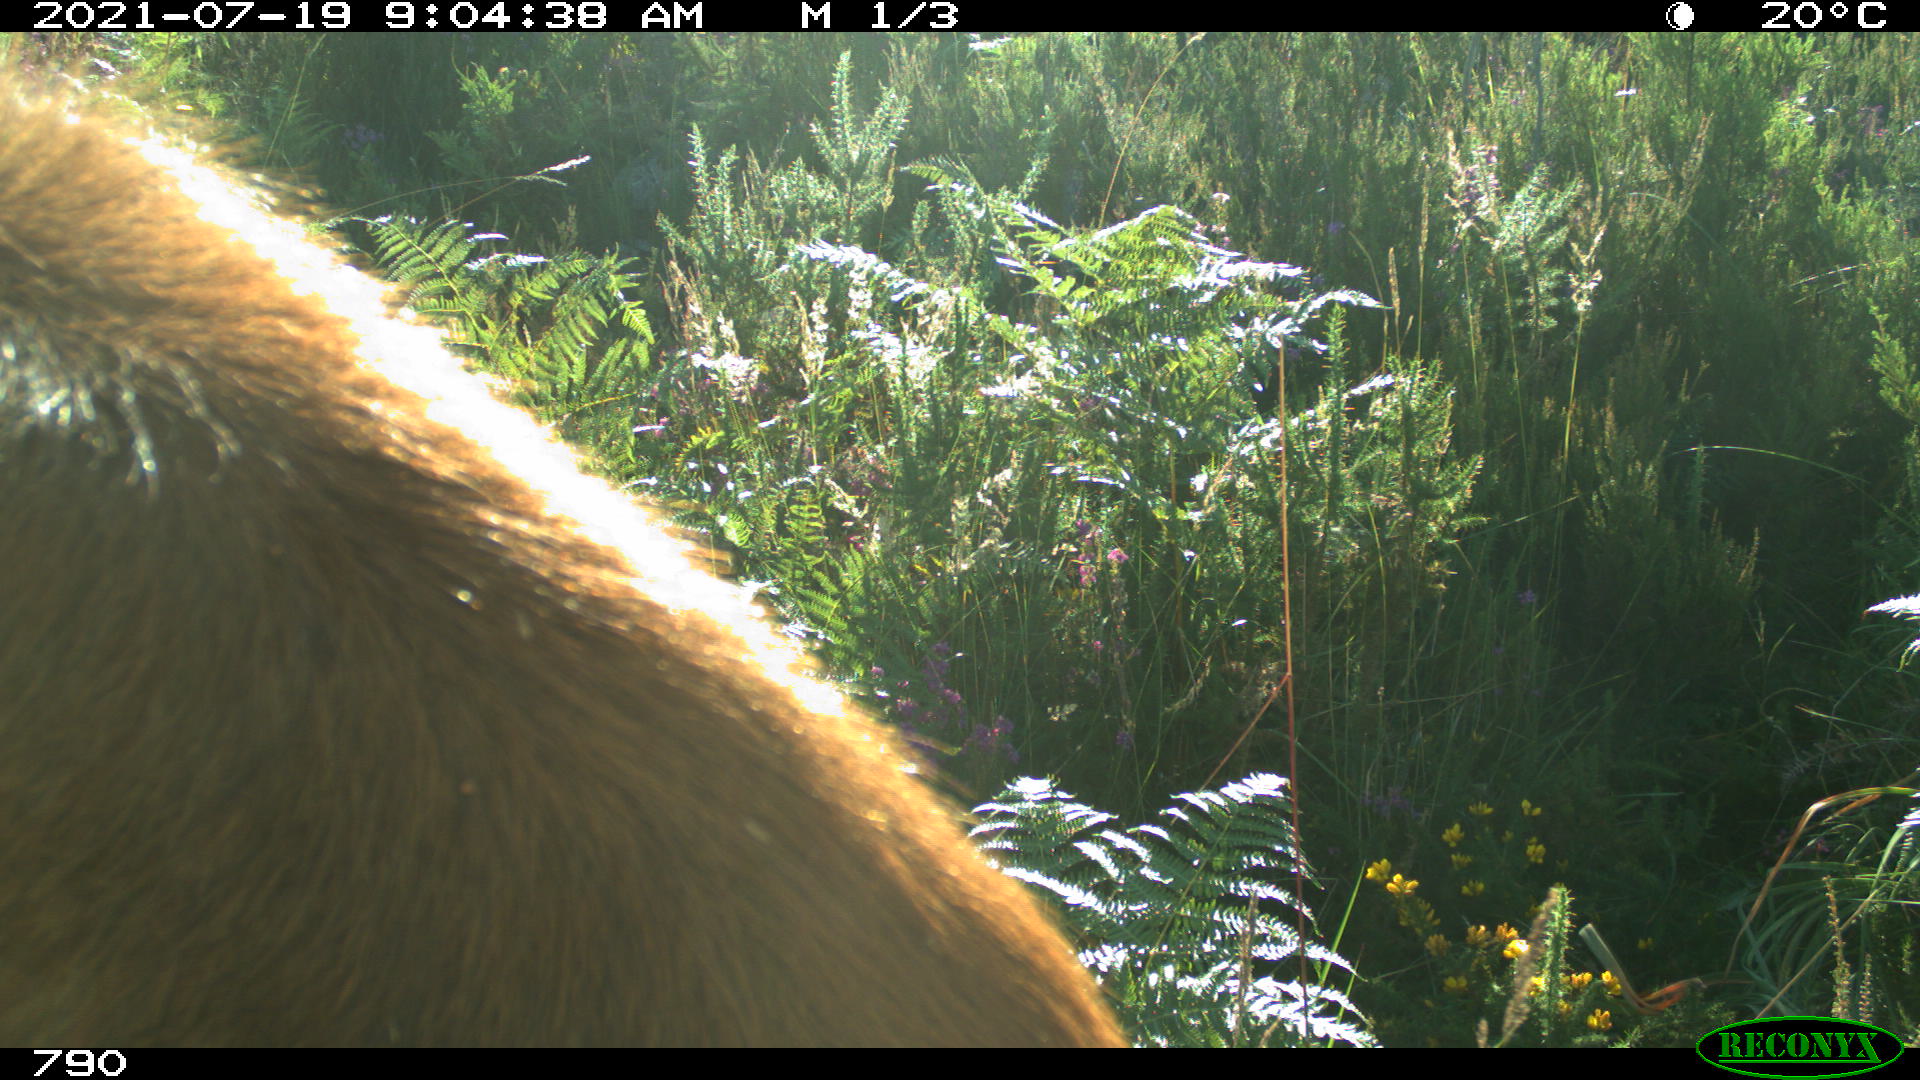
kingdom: Animalia
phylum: Chordata
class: Mammalia
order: Artiodactyla
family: Bovidae
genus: Bos
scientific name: Bos taurus
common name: Domesticated cattle
